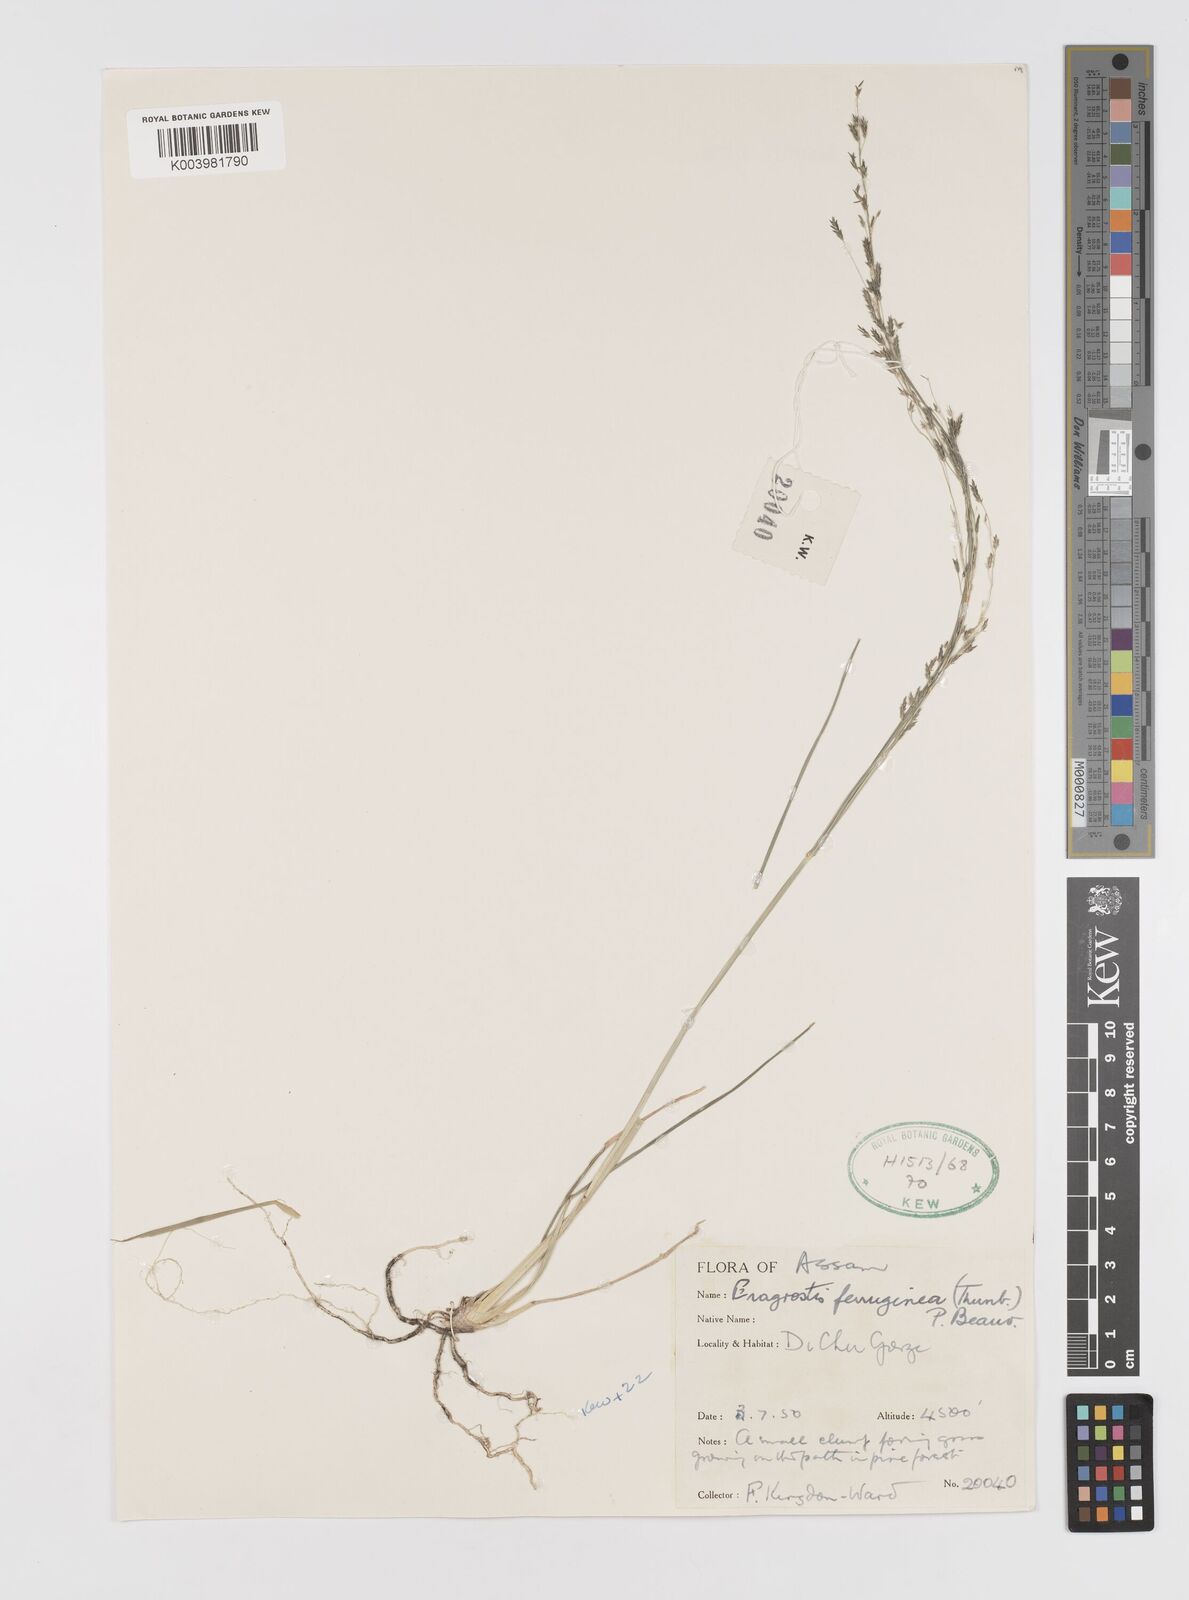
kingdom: Plantae
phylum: Tracheophyta
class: Liliopsida
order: Poales
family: Poaceae
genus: Eragrostis
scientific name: Eragrostis ferruginea
